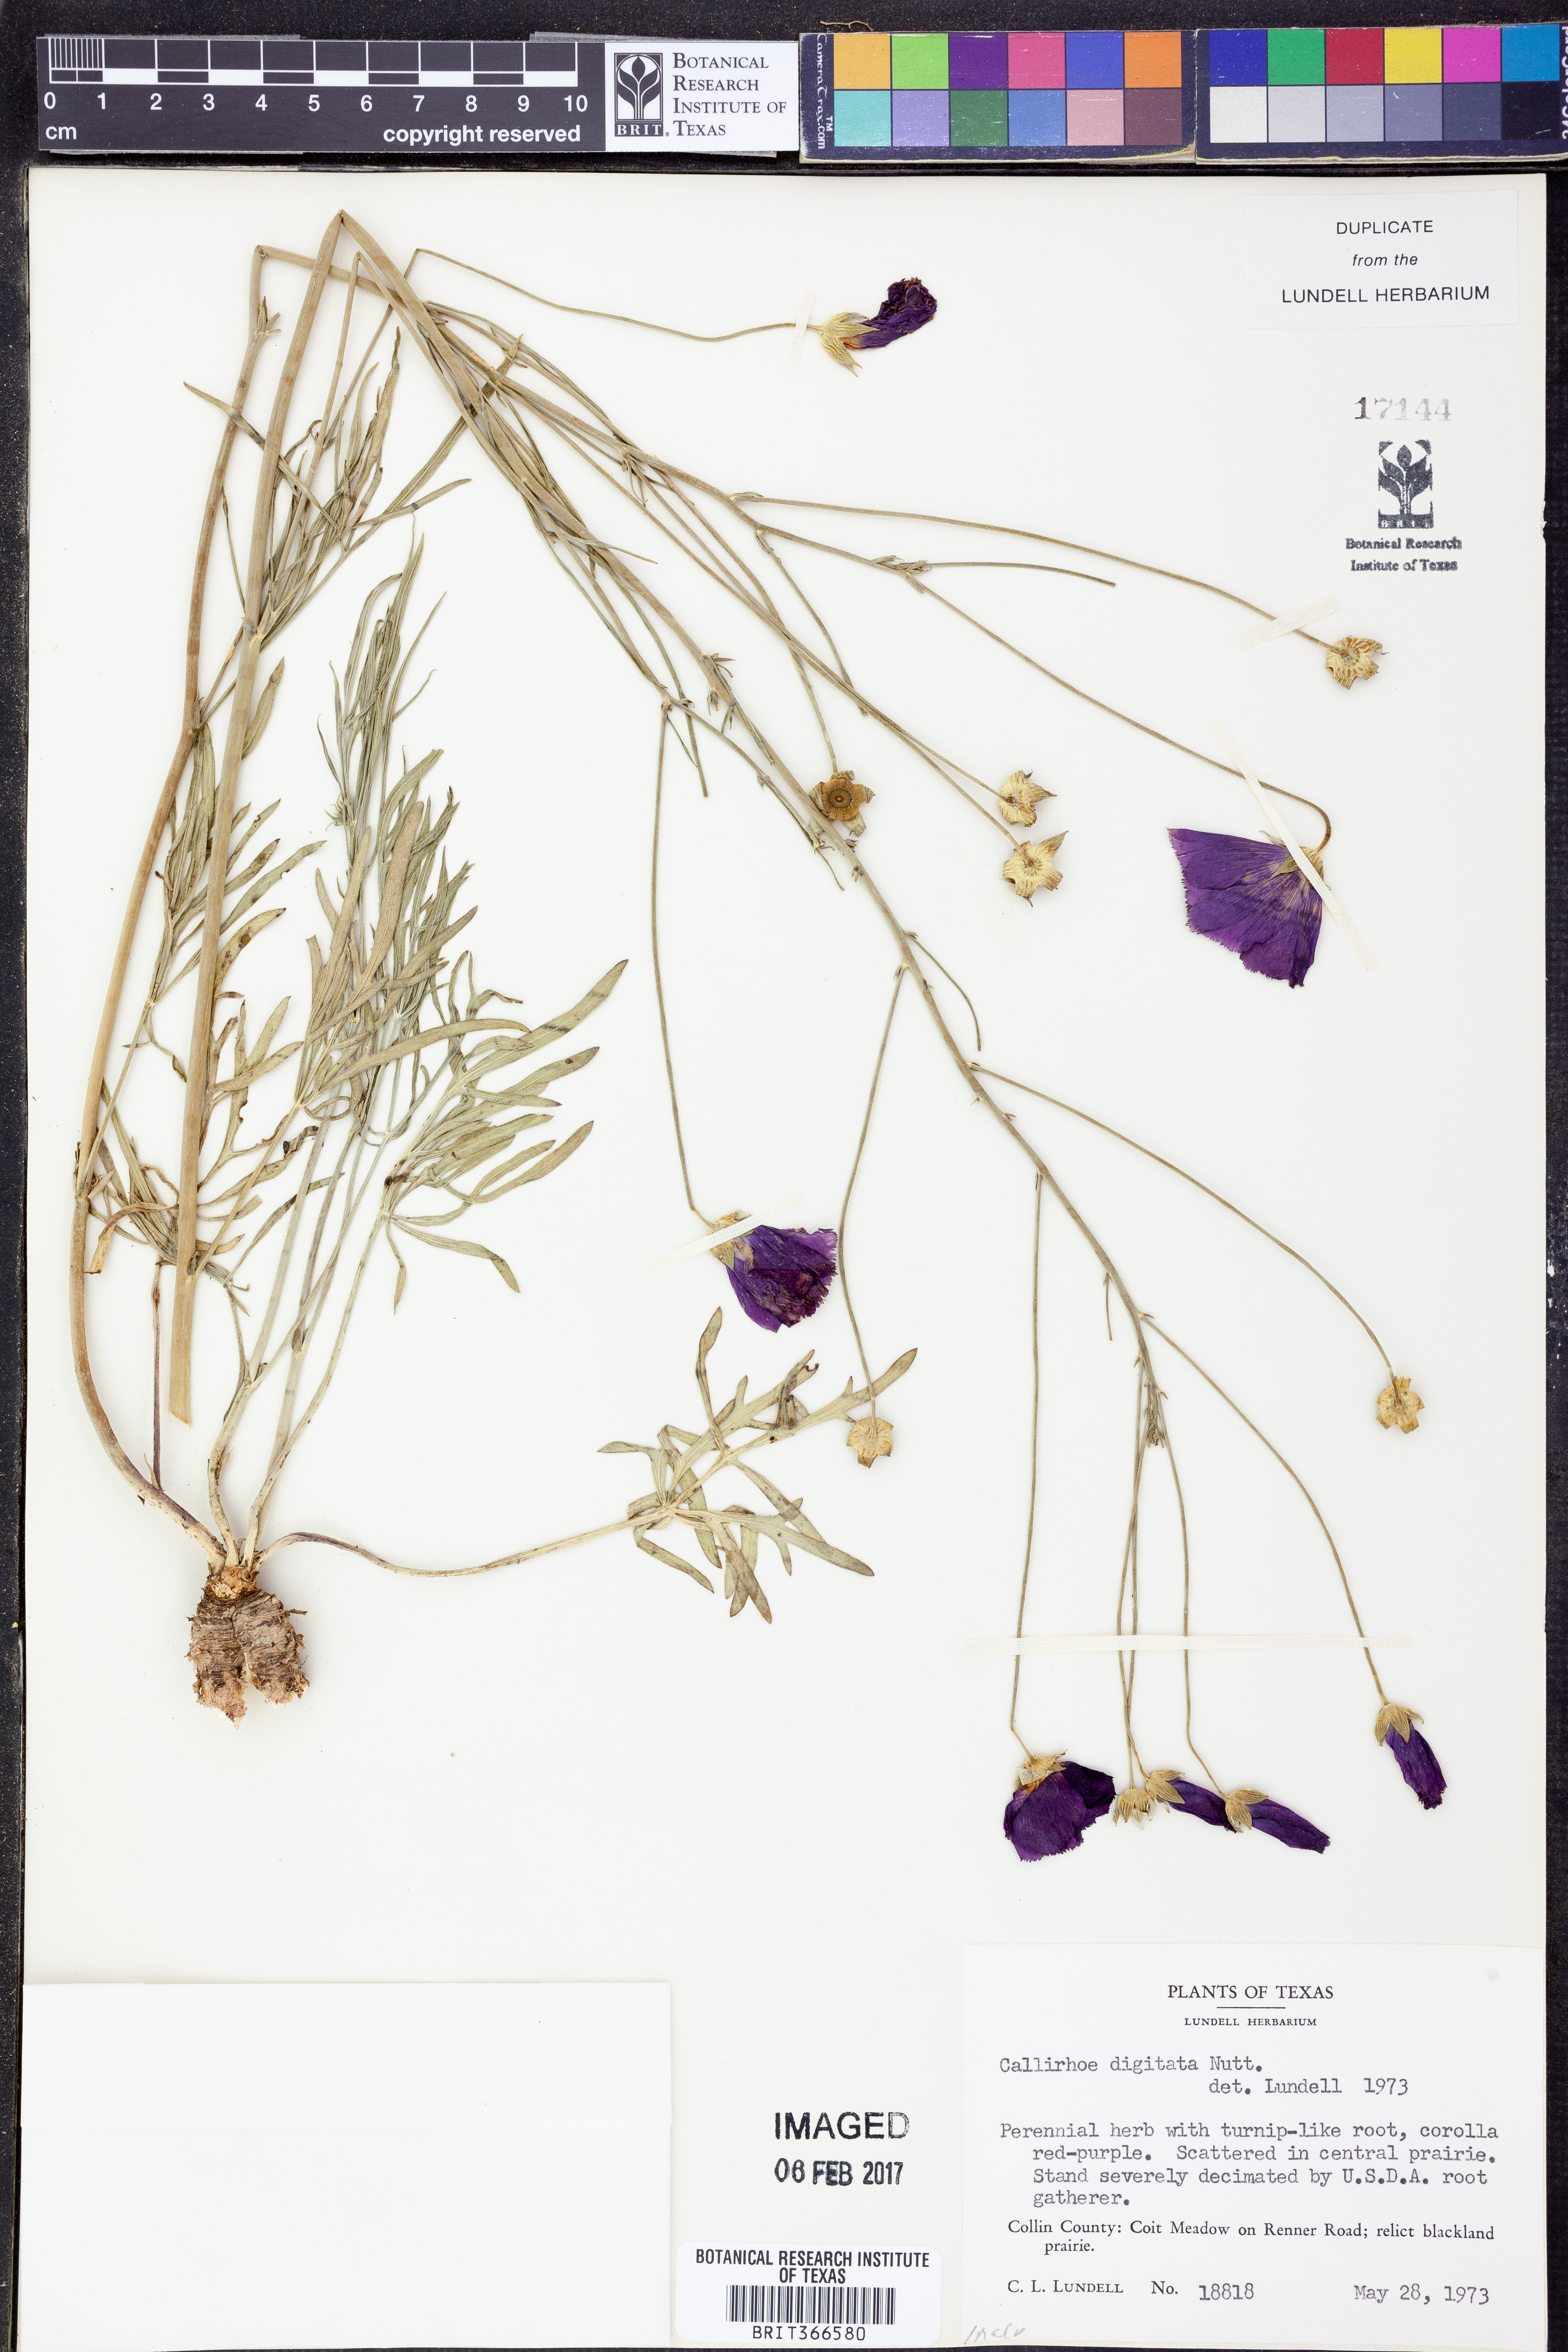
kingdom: Plantae
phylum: Tracheophyta
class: Magnoliopsida
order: Malvales
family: Malvaceae
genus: Callirhoe
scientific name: Callirhoe digitata
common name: Finger poppy-mallow
